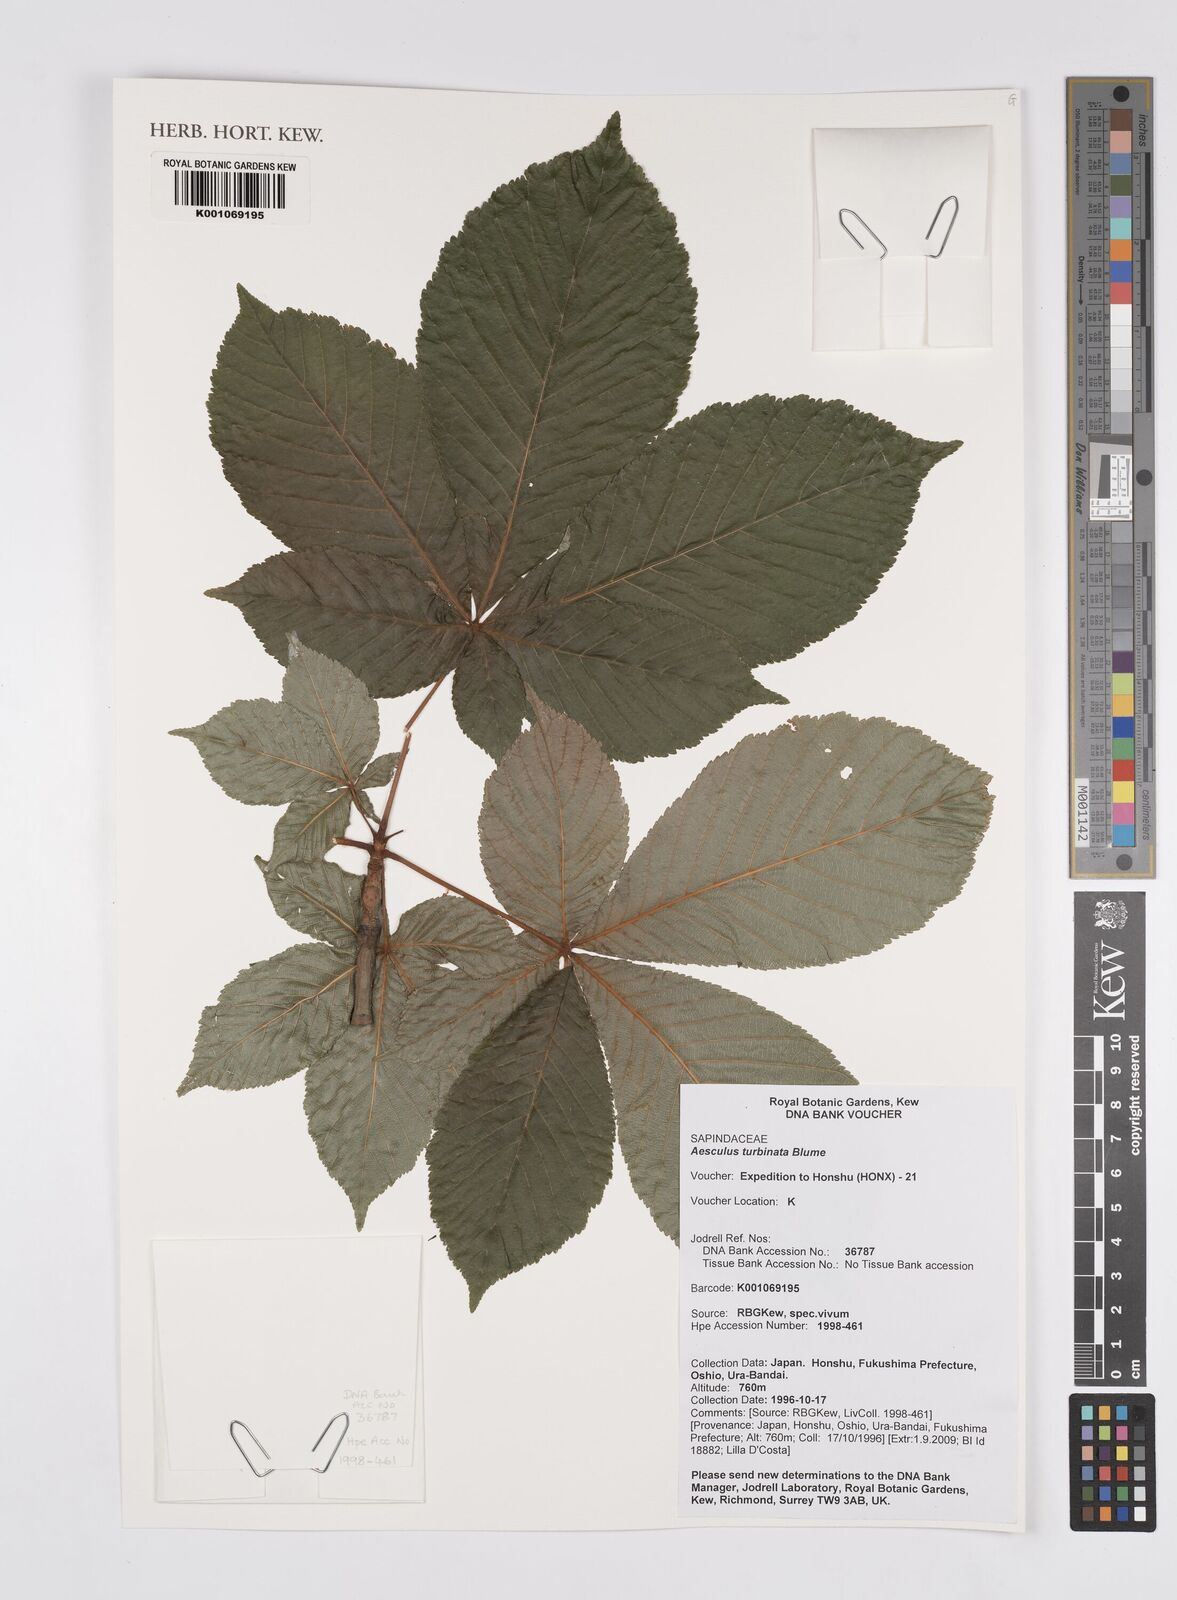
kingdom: Plantae
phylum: Tracheophyta
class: Magnoliopsida
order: Sapindales
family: Sapindaceae
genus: Aesculus
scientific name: Aesculus turbinata
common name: Japanese horse-chestnut
